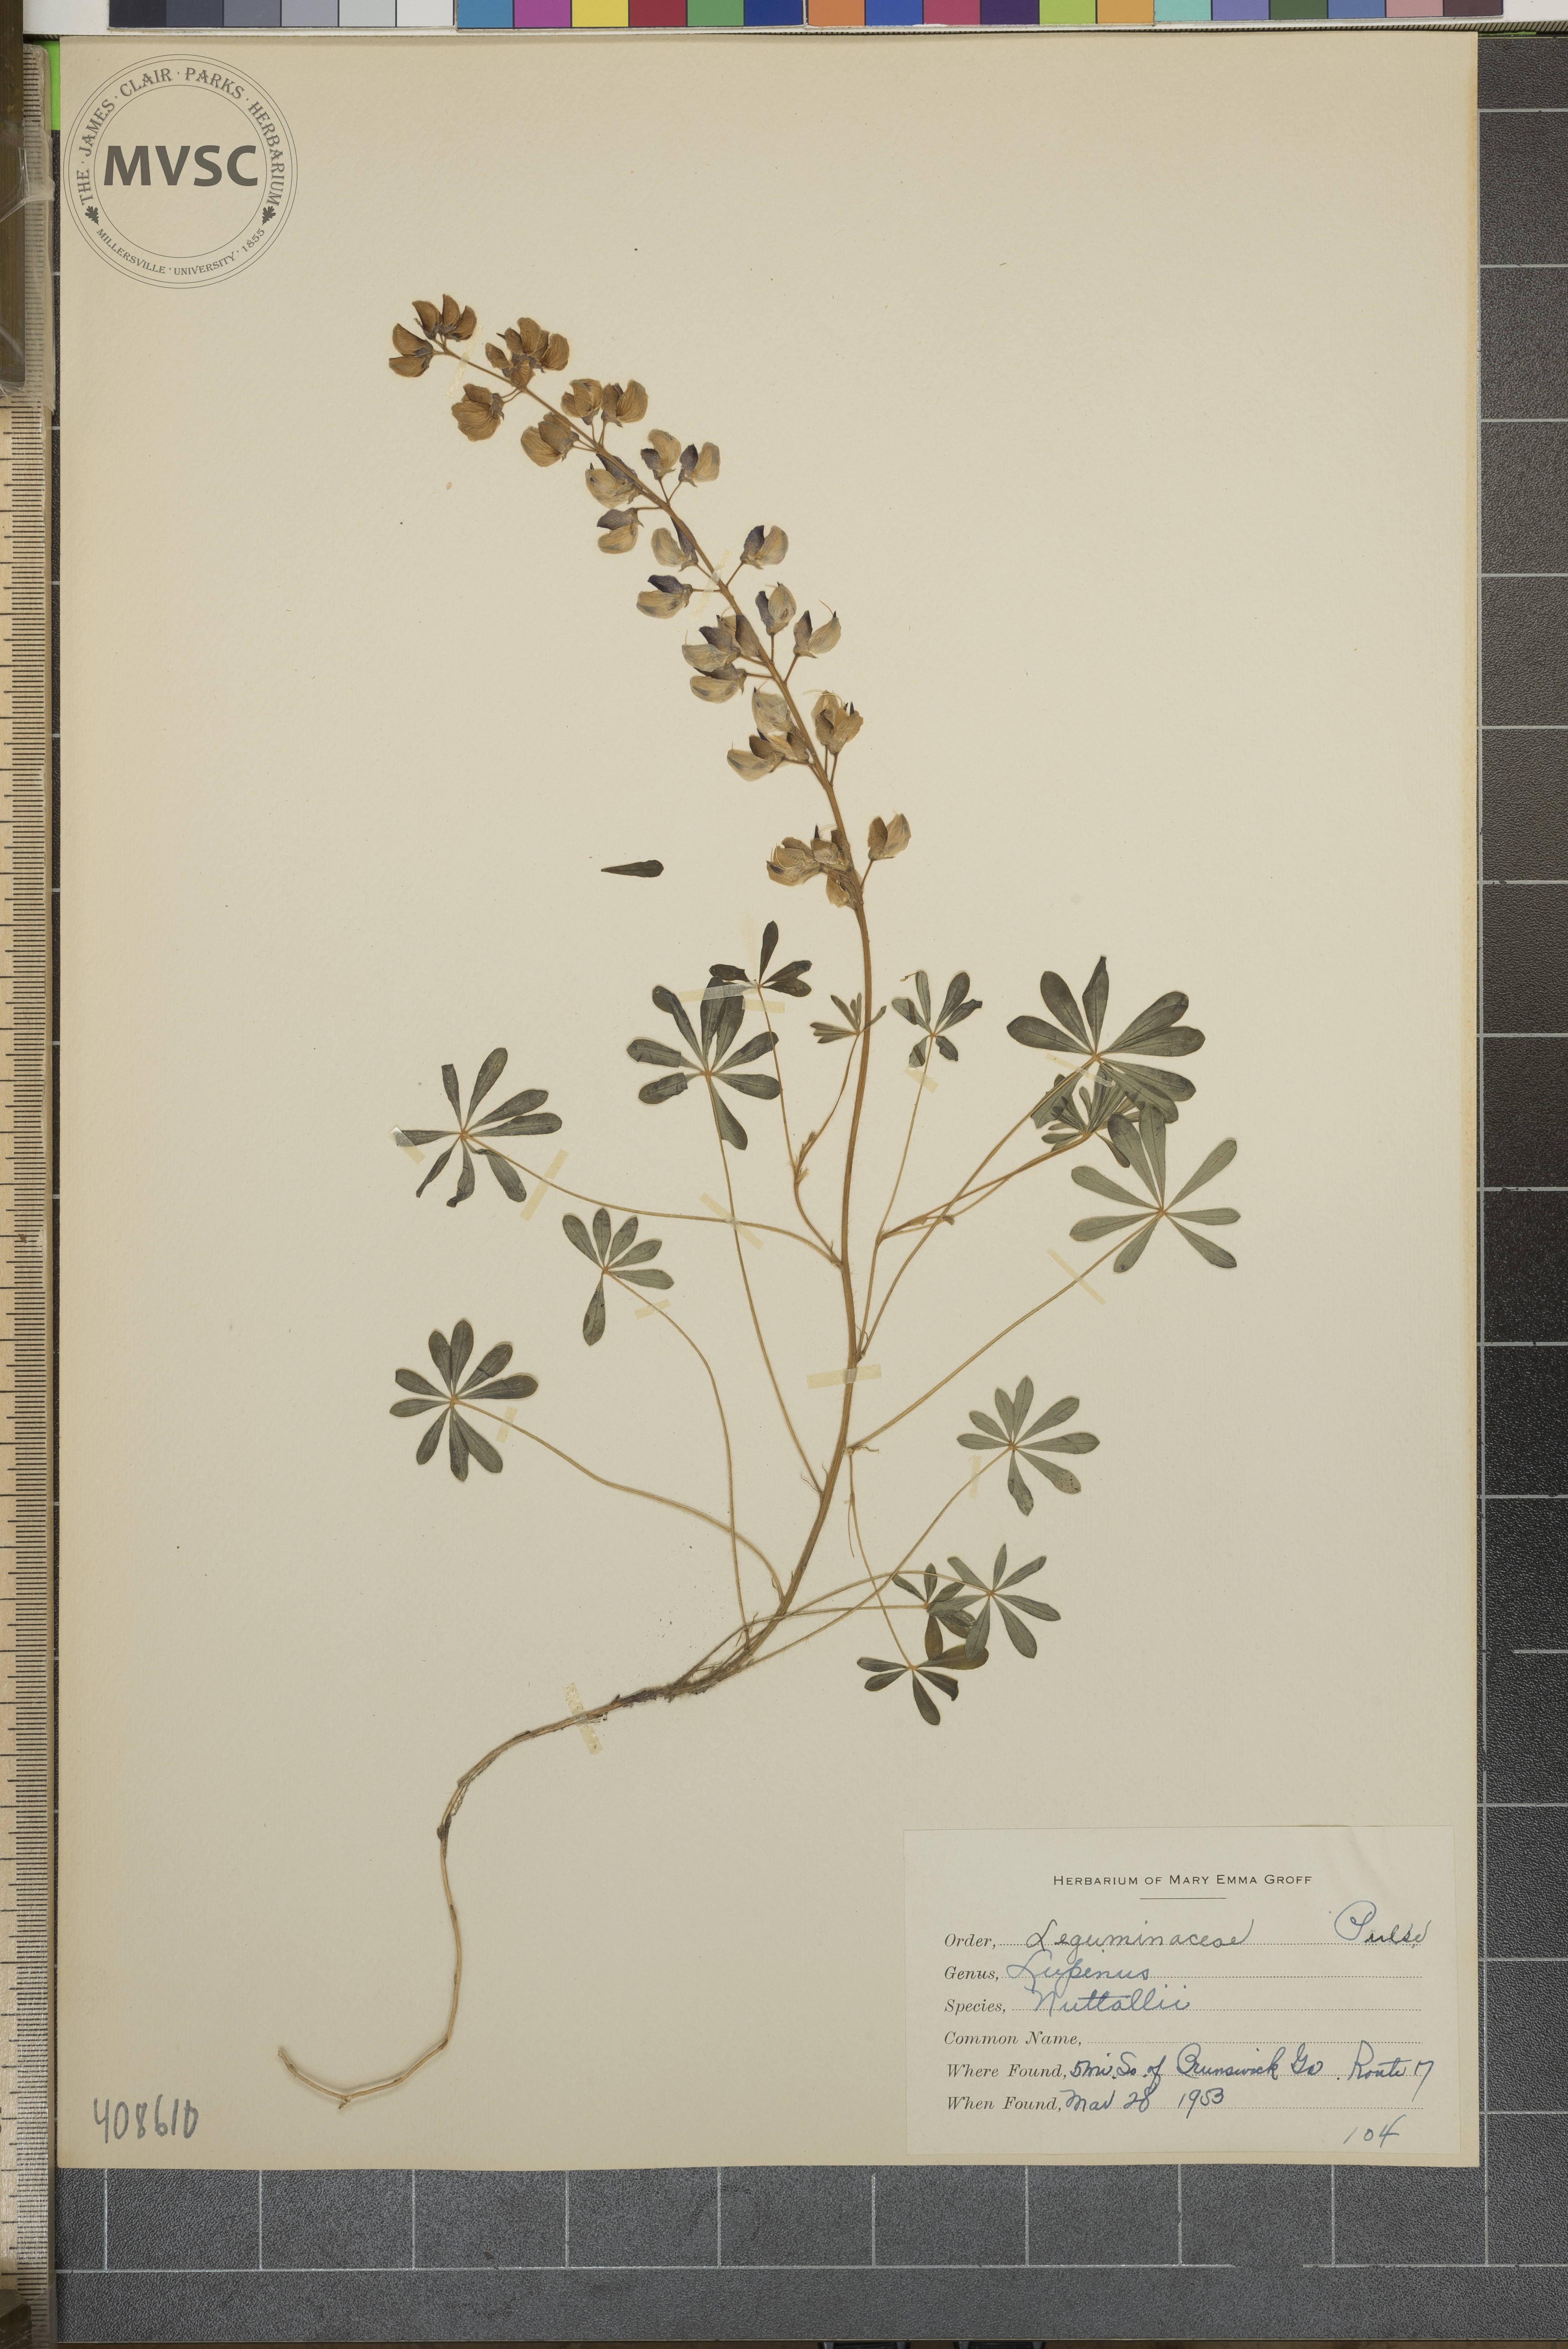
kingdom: Plantae
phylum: Tracheophyta
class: Magnoliopsida
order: Fabales
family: Fabaceae
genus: Lupinus
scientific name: Lupinus perennis
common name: Sundial lupine
